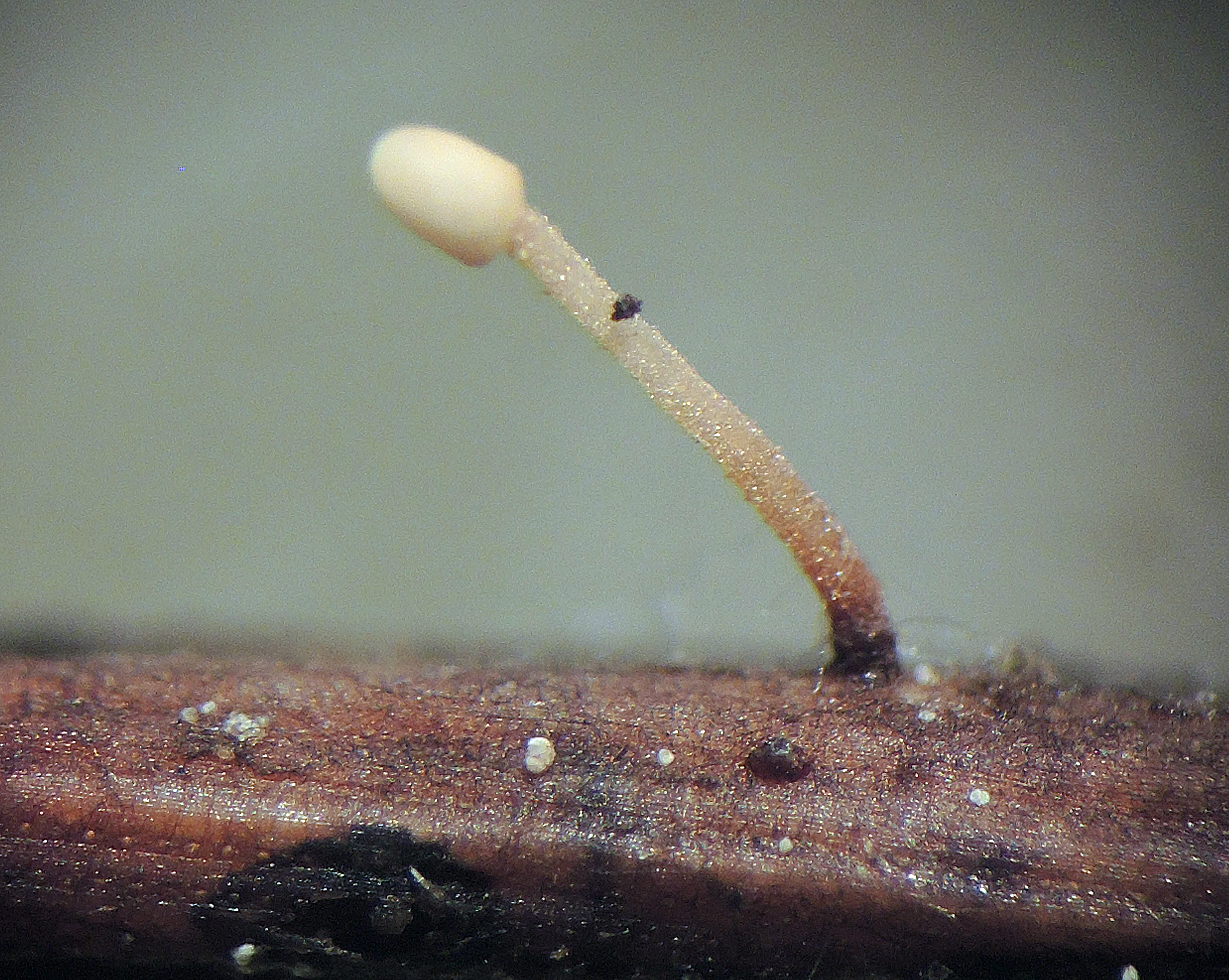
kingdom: Fungi
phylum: Ascomycota
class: Leotiomycetes
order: Helotiales
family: Cenangiaceae
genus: Heyderia
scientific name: Heyderia cucullata
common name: dværg-sækhue
